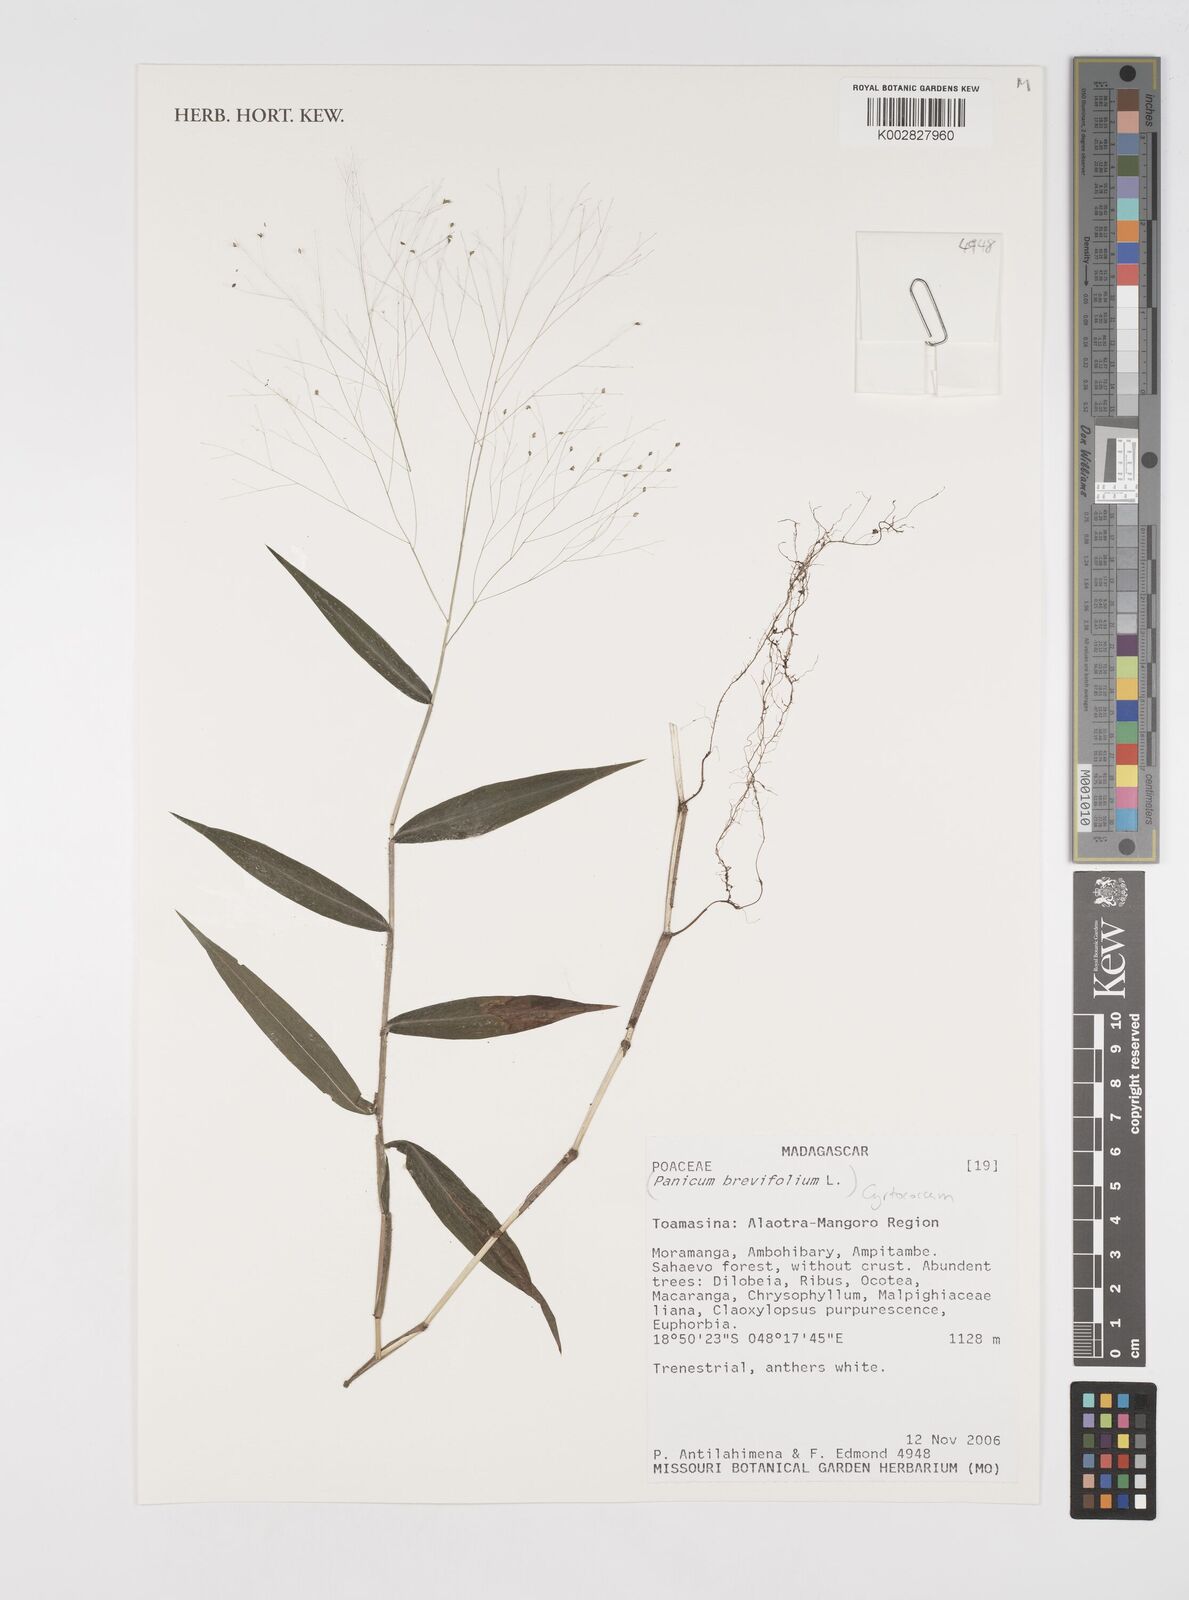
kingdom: Plantae
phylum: Tracheophyta
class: Liliopsida
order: Poales
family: Poaceae
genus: Cyrtococcum
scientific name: Cyrtococcum
